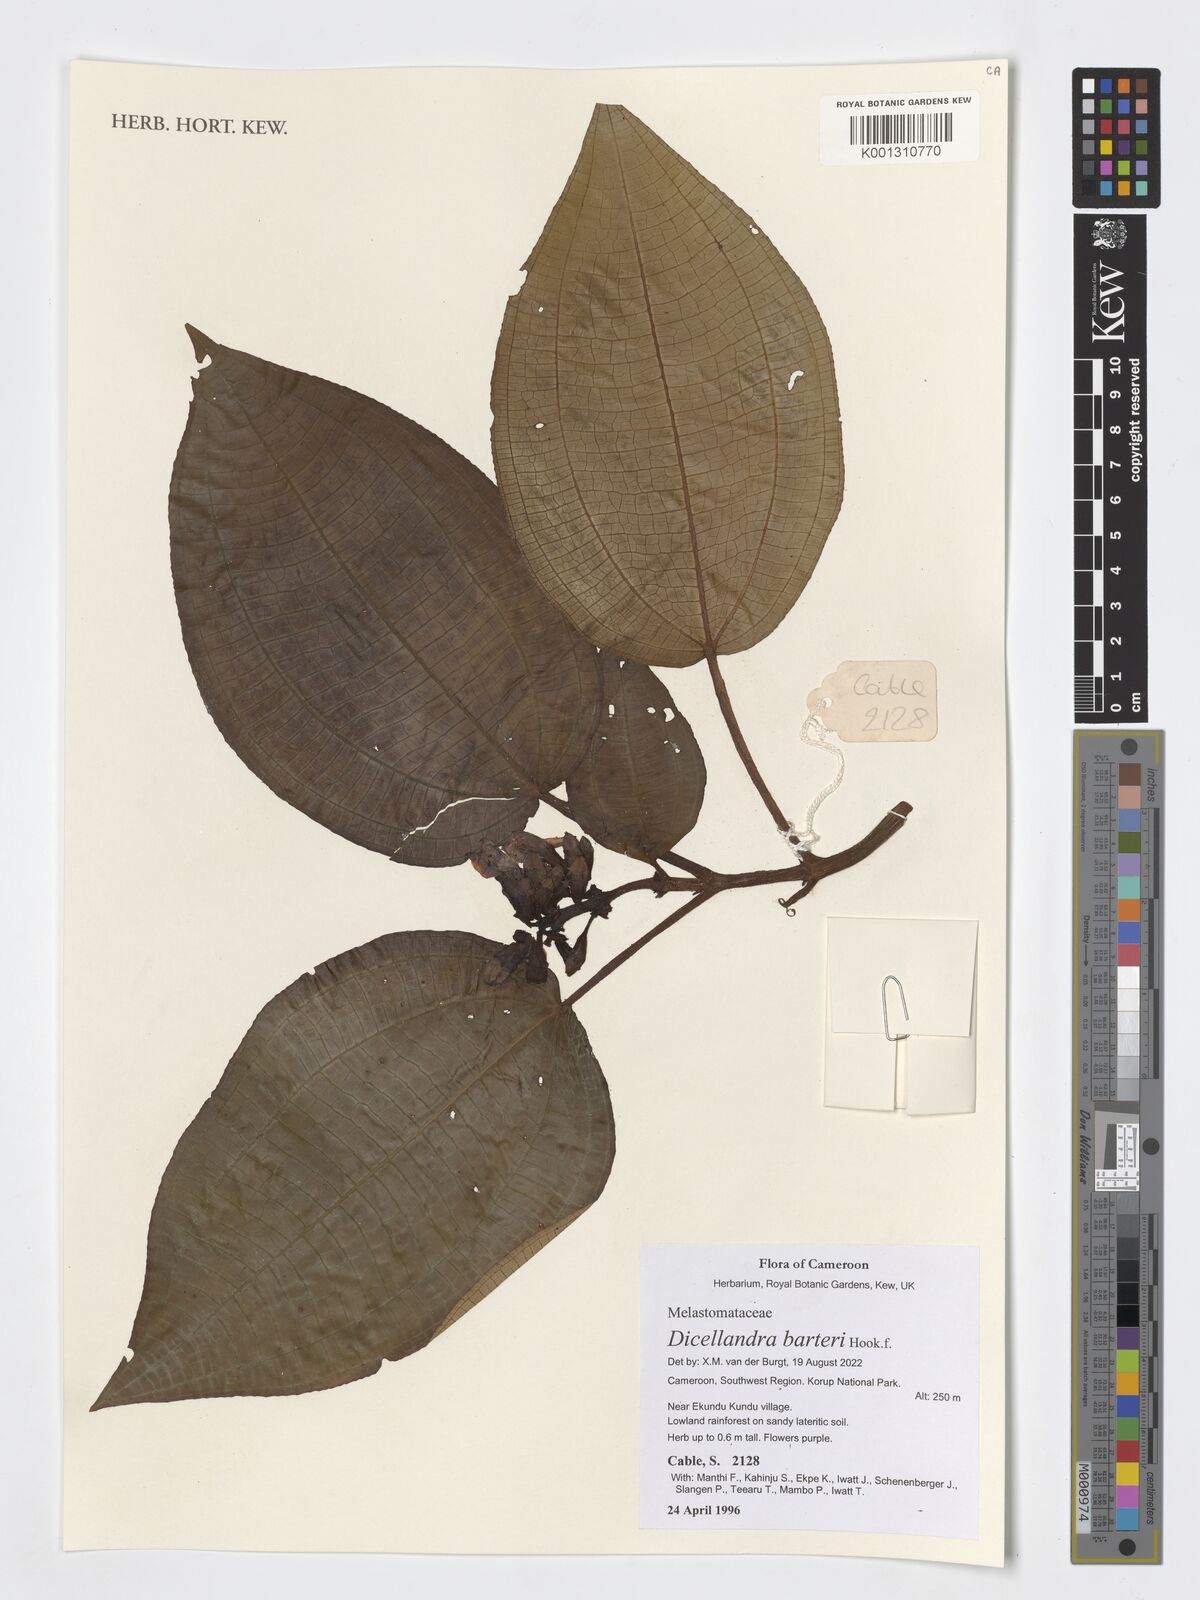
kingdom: Plantae
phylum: Tracheophyta
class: Magnoliopsida
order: Myrtales
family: Melastomataceae
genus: Dicellandra
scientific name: Dicellandra barteri
